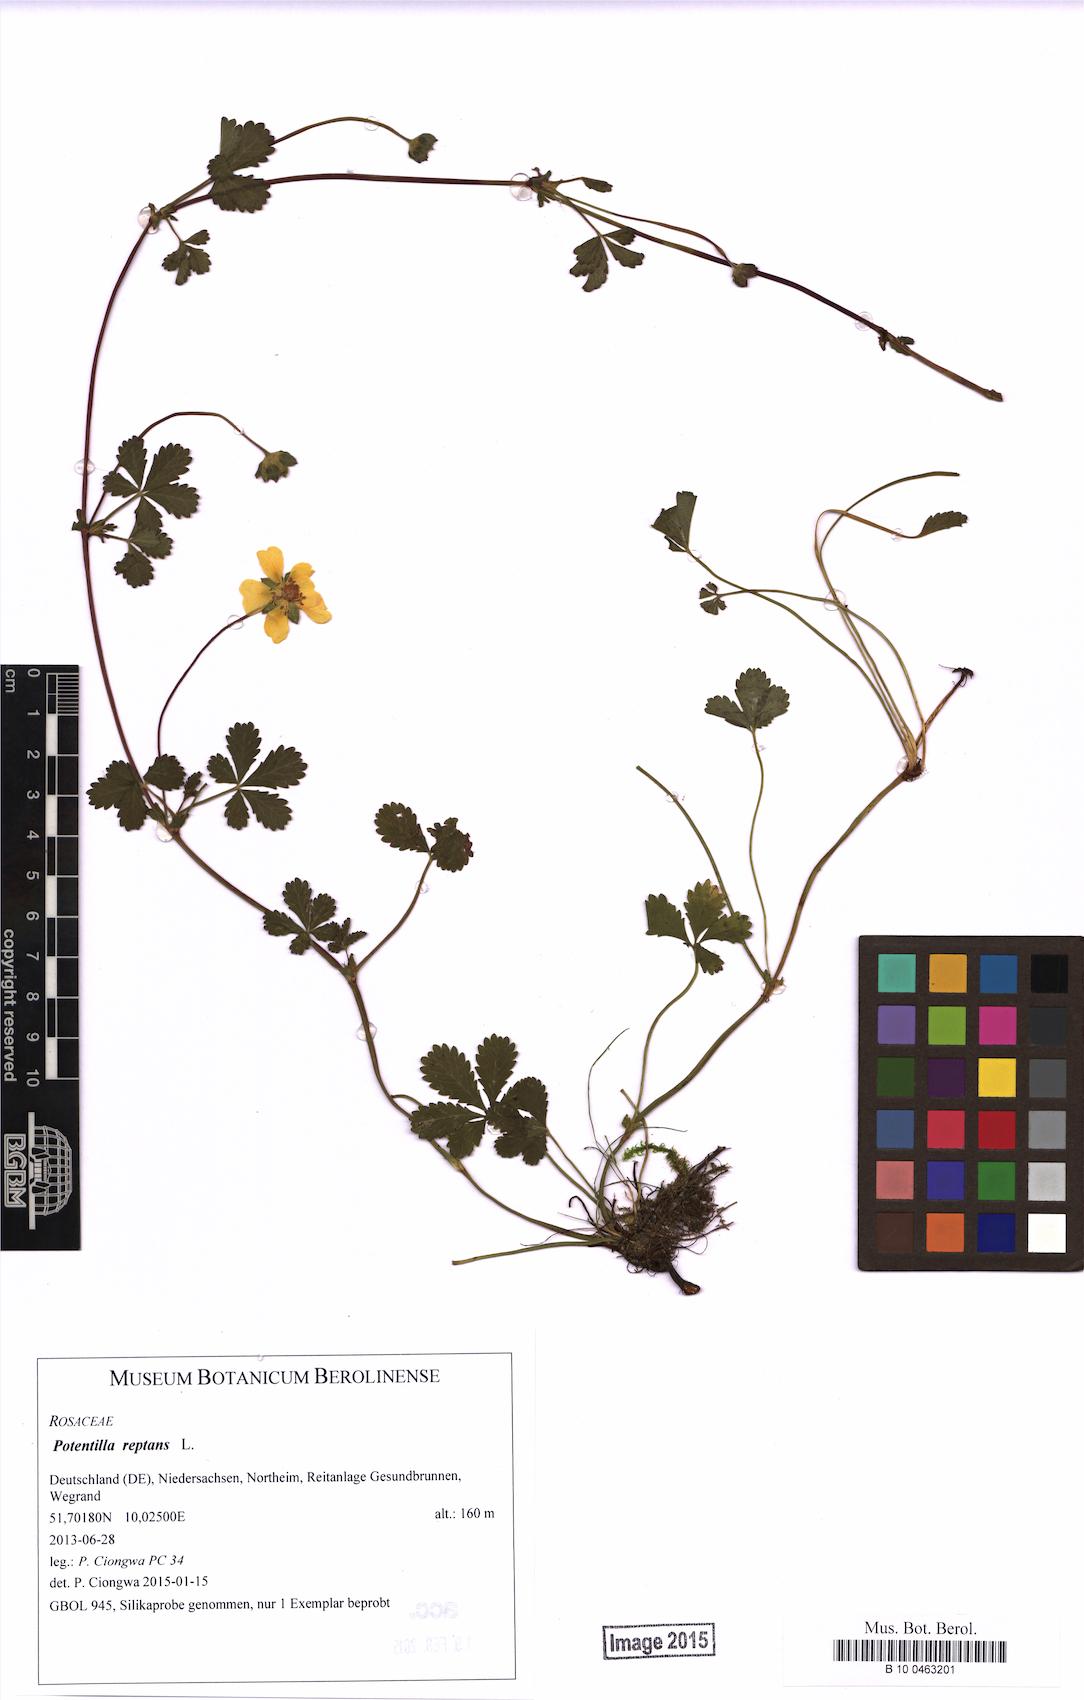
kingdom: Plantae
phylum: Tracheophyta
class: Magnoliopsida
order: Rosales
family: Rosaceae
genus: Potentilla
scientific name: Potentilla reptans
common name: Creeping cinquefoil
